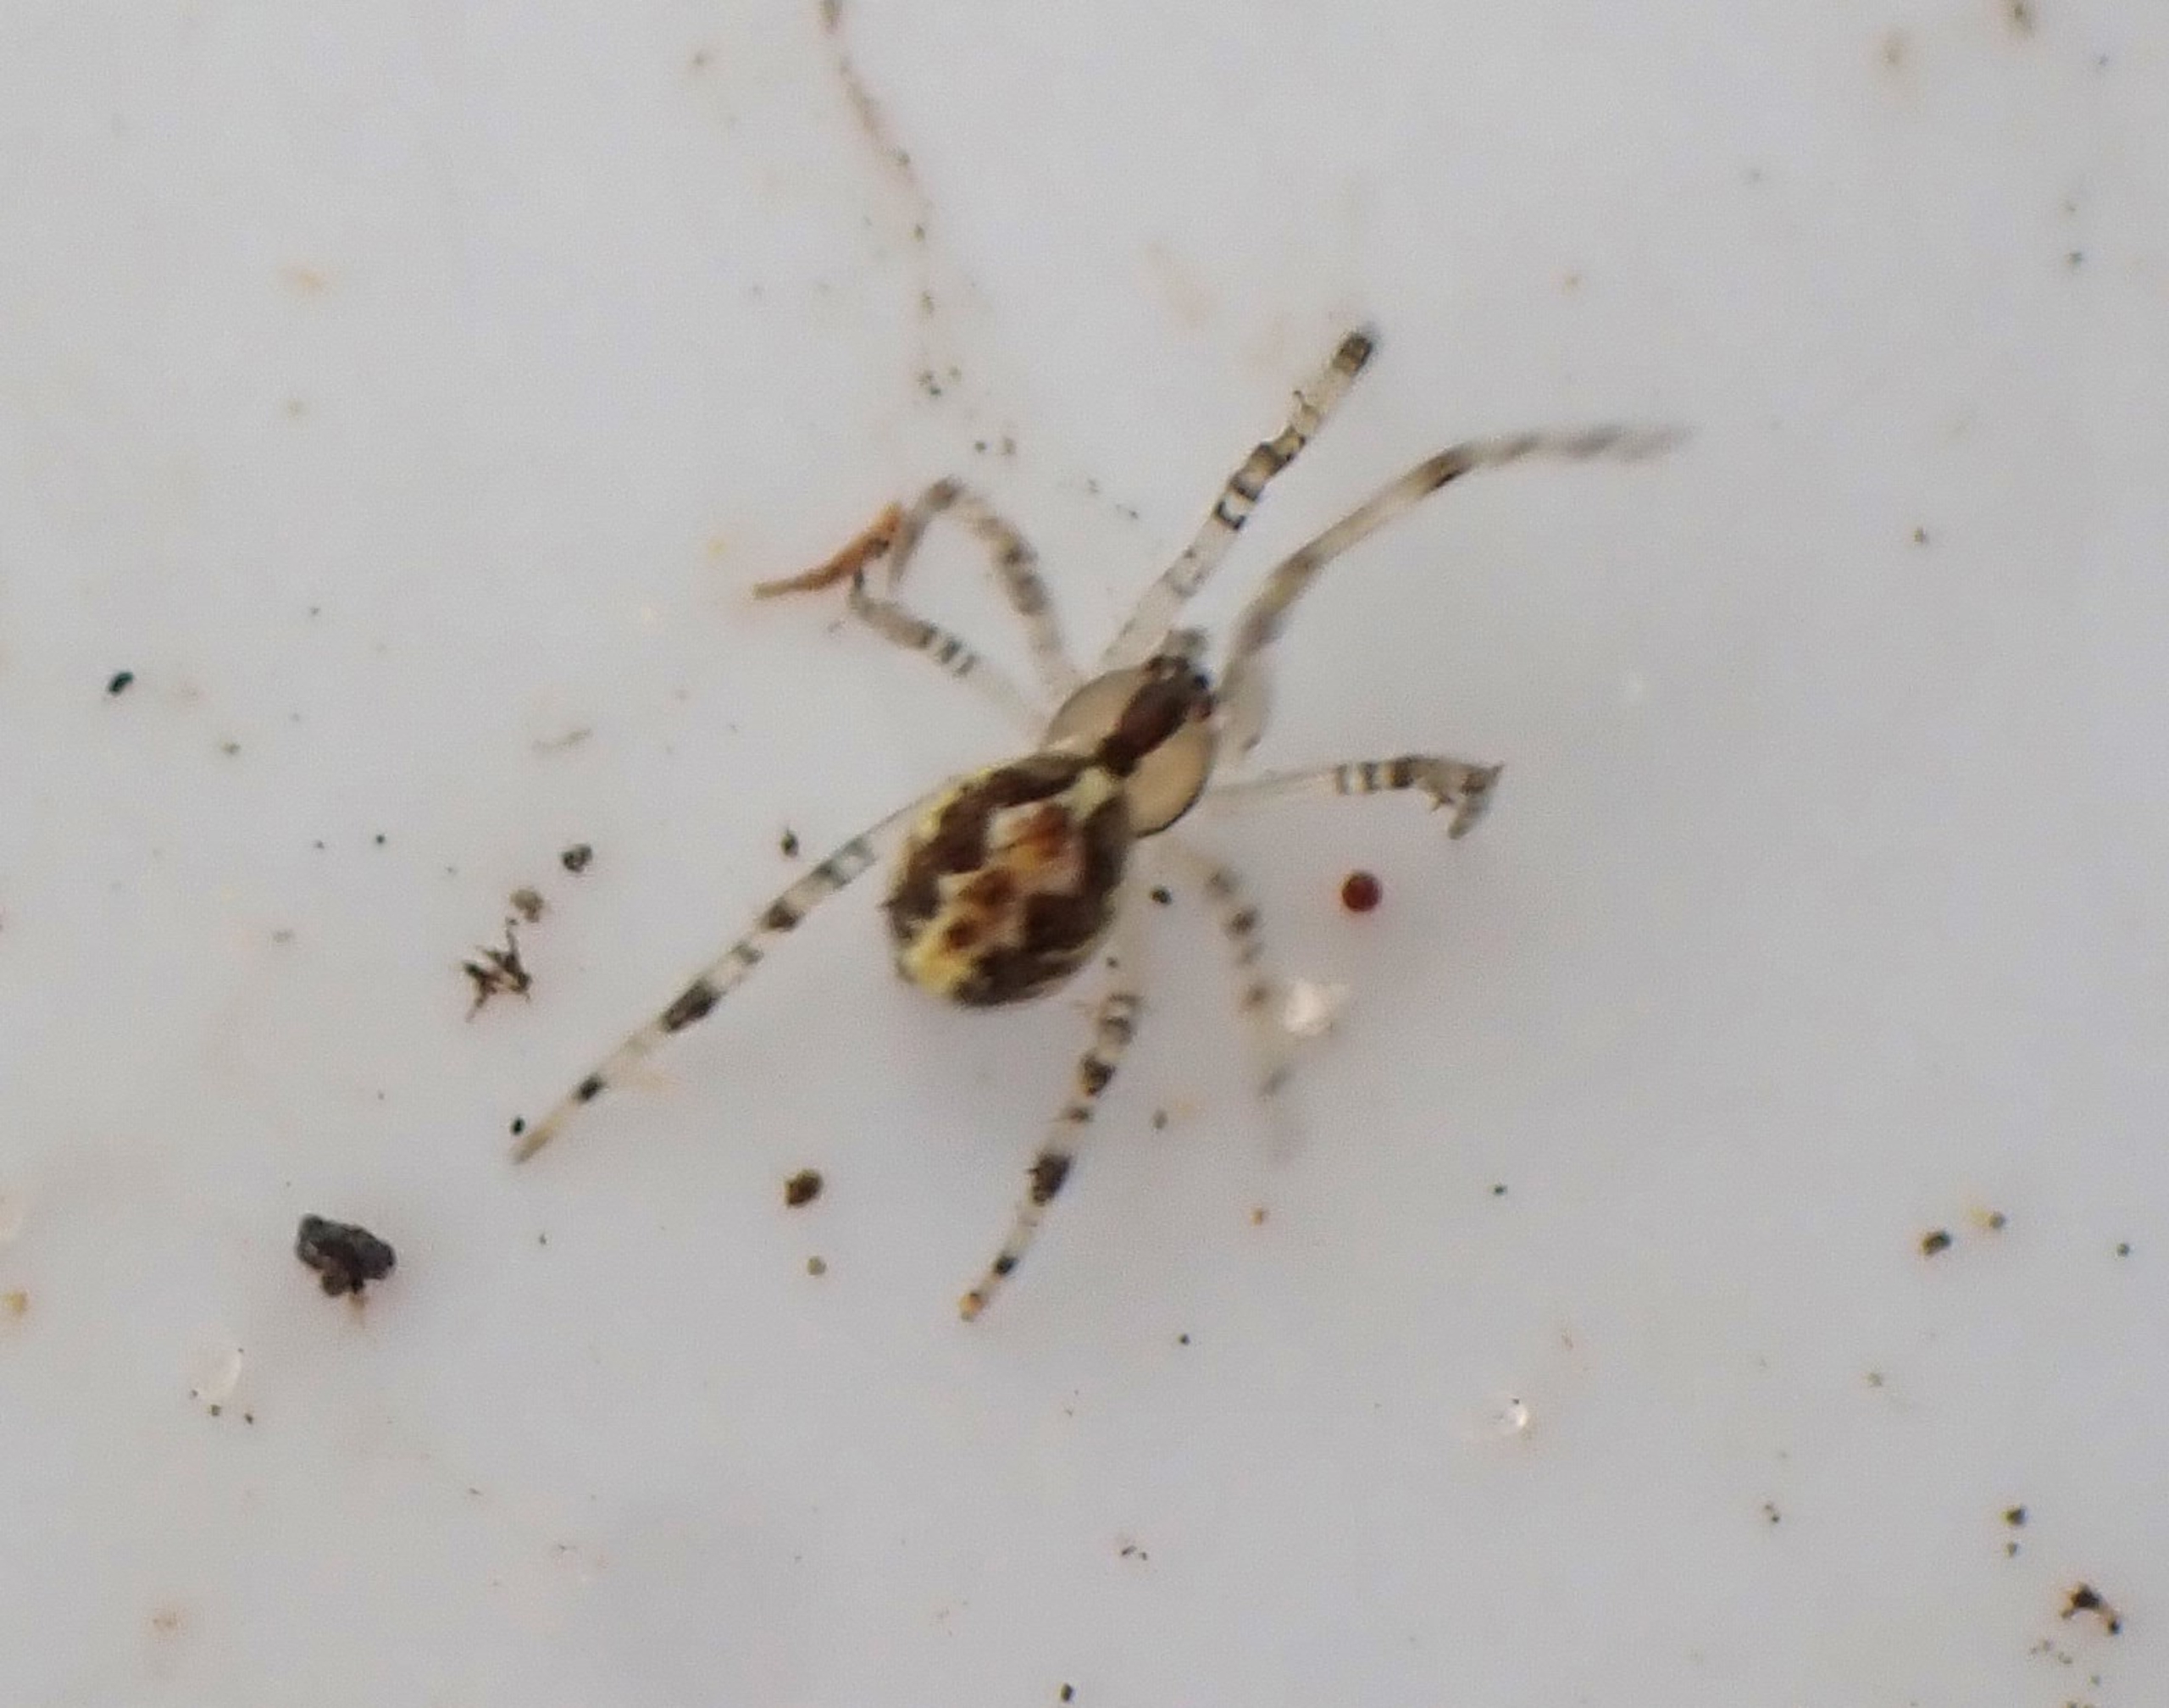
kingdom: Animalia
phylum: Arthropoda
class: Arachnida
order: Araneae
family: Theridiidae
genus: Theridion
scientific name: Theridion varians
